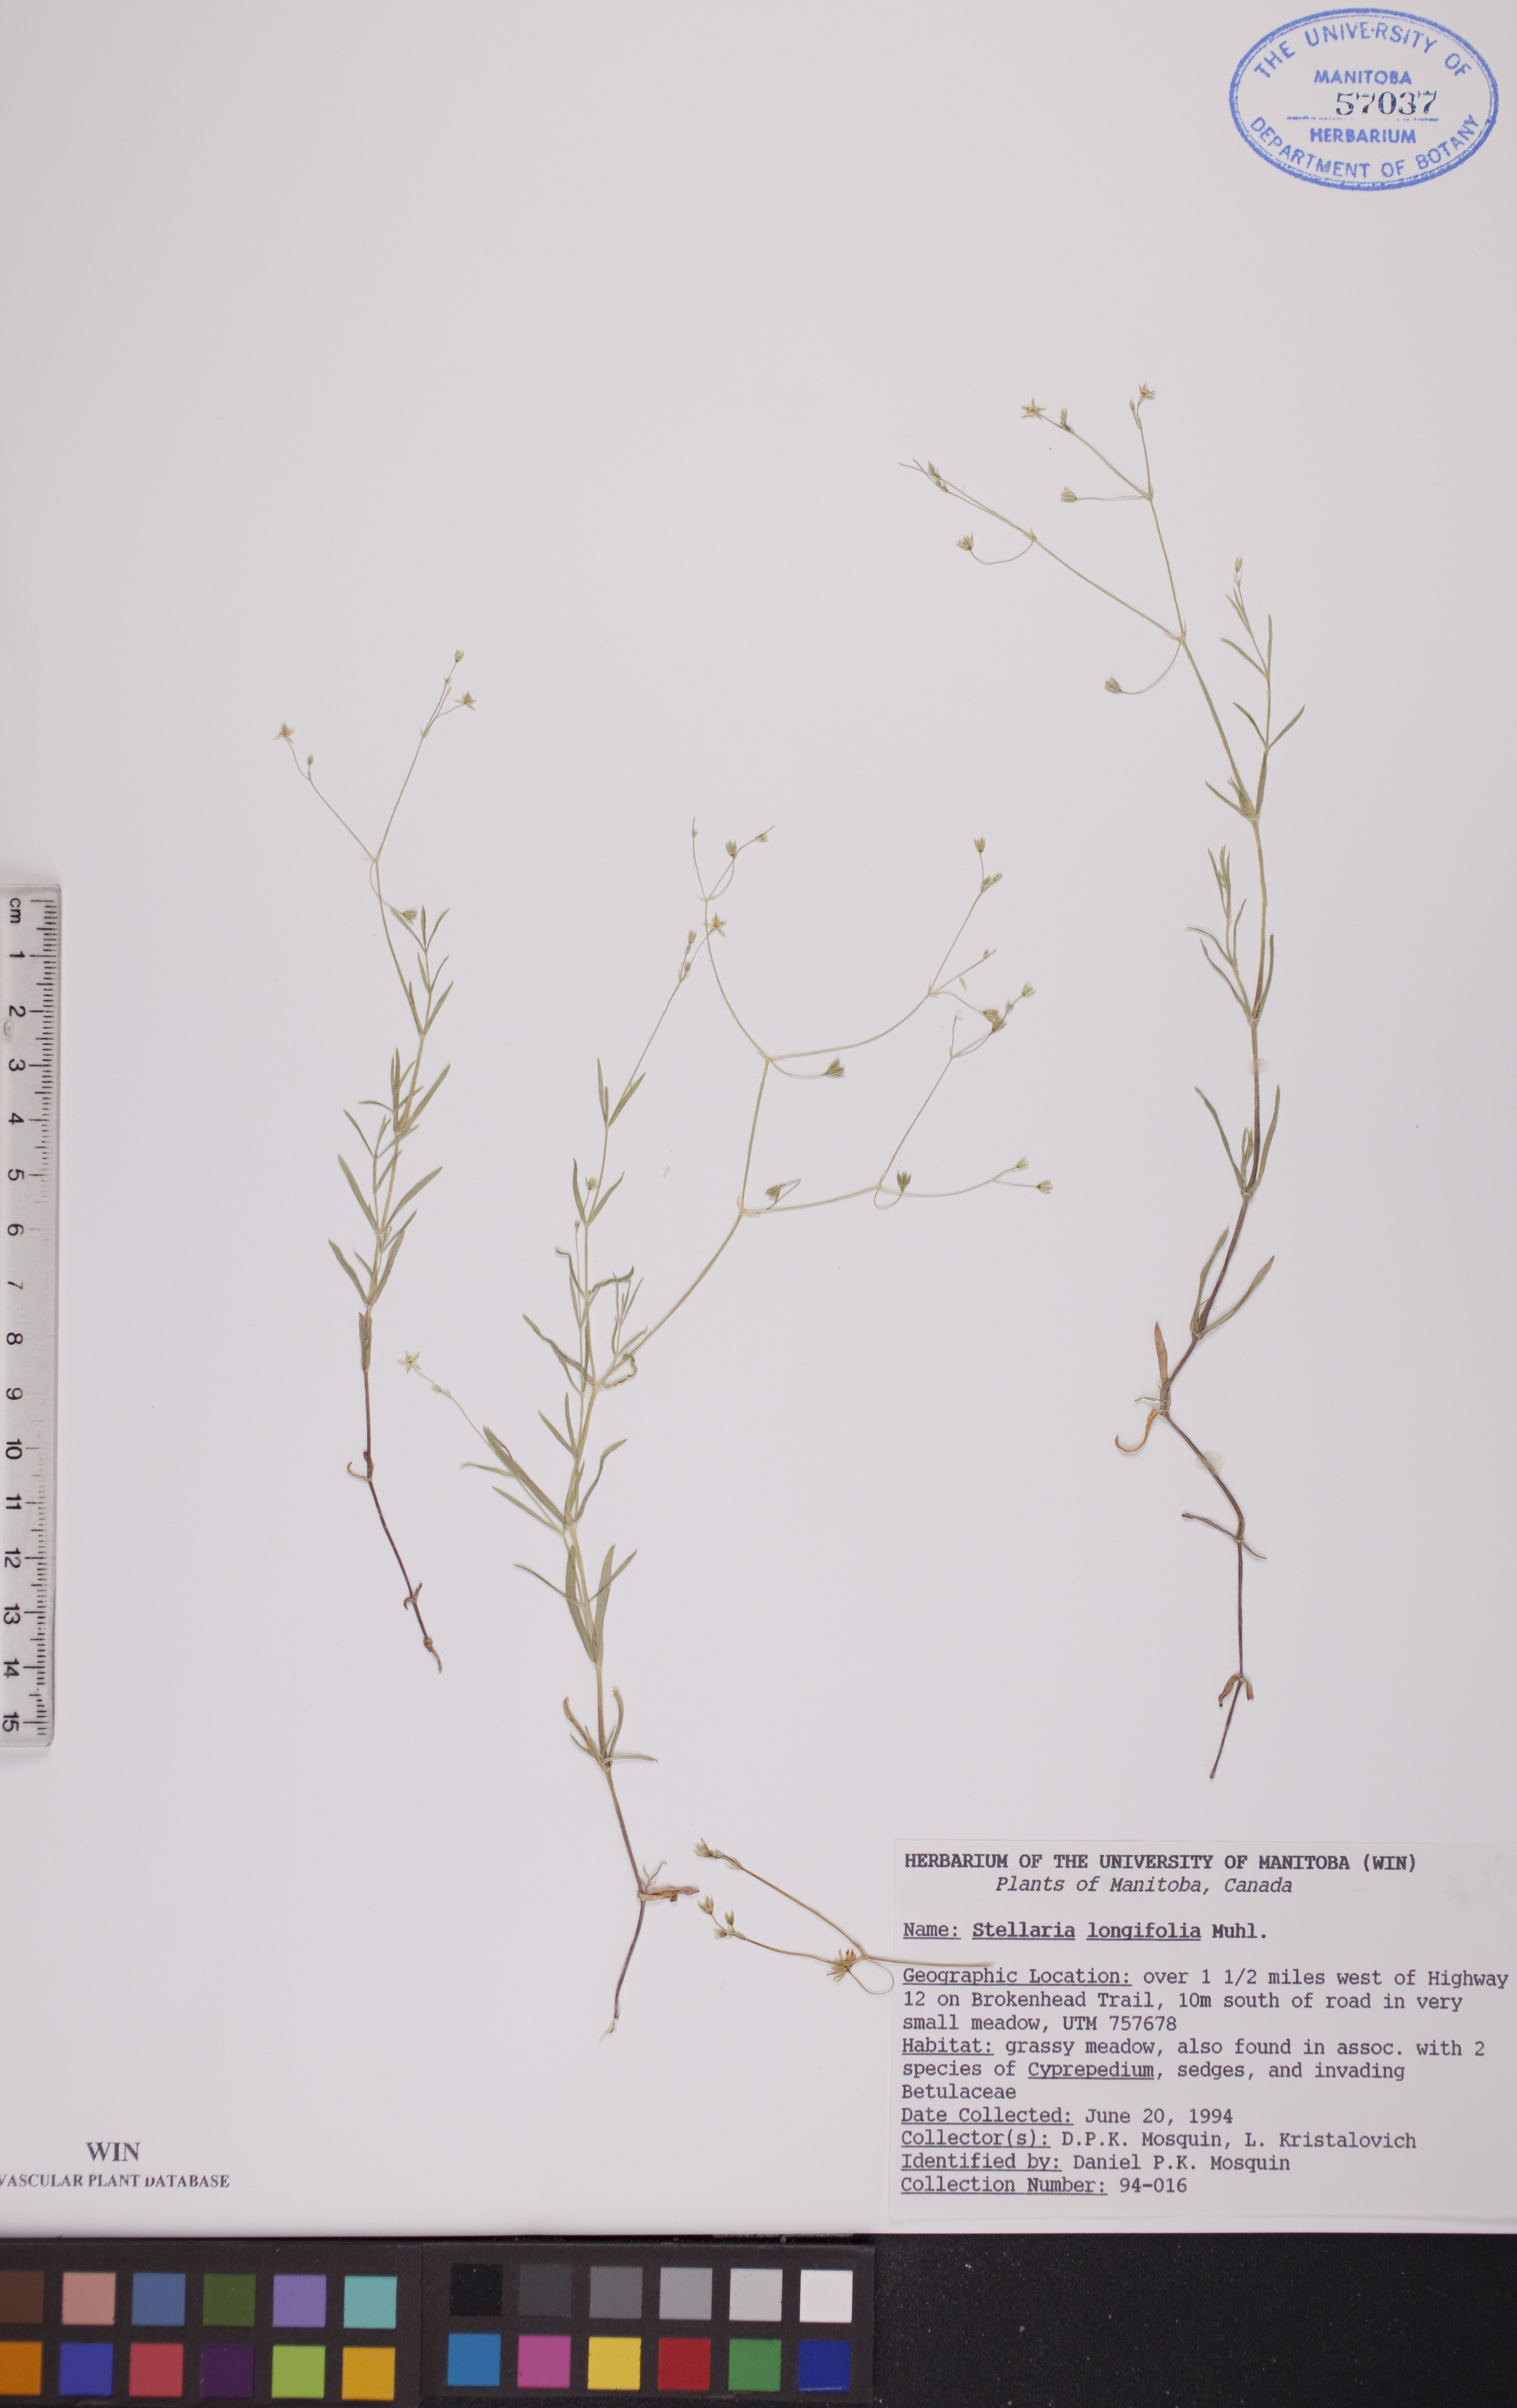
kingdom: Plantae
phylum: Tracheophyta
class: Magnoliopsida
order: Caryophyllales
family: Caryophyllaceae
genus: Stellaria
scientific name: Stellaria longifolia
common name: Long-leaved chickweed
